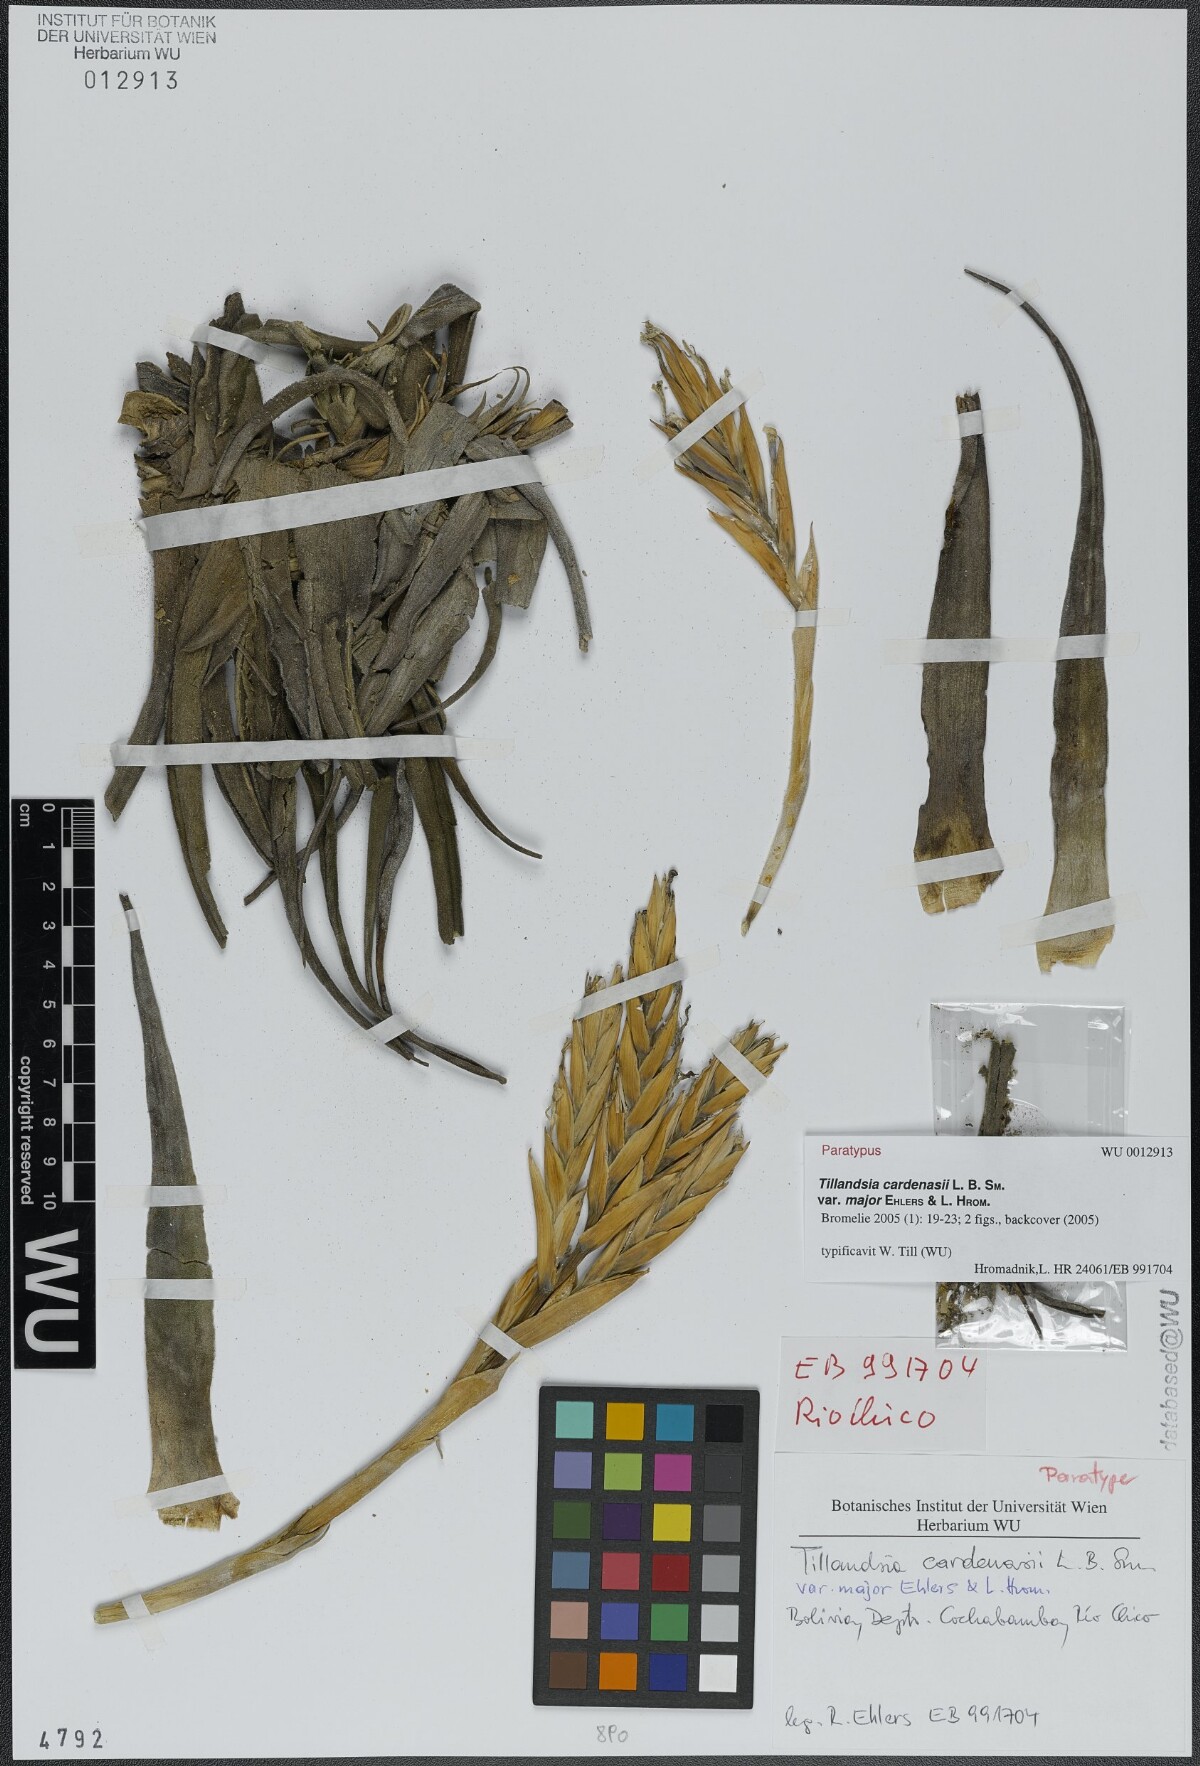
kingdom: Plantae
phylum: Tracheophyta
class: Liliopsida
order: Poales
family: Bromeliaceae
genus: Tillandsia
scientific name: Tillandsia cardenasii
